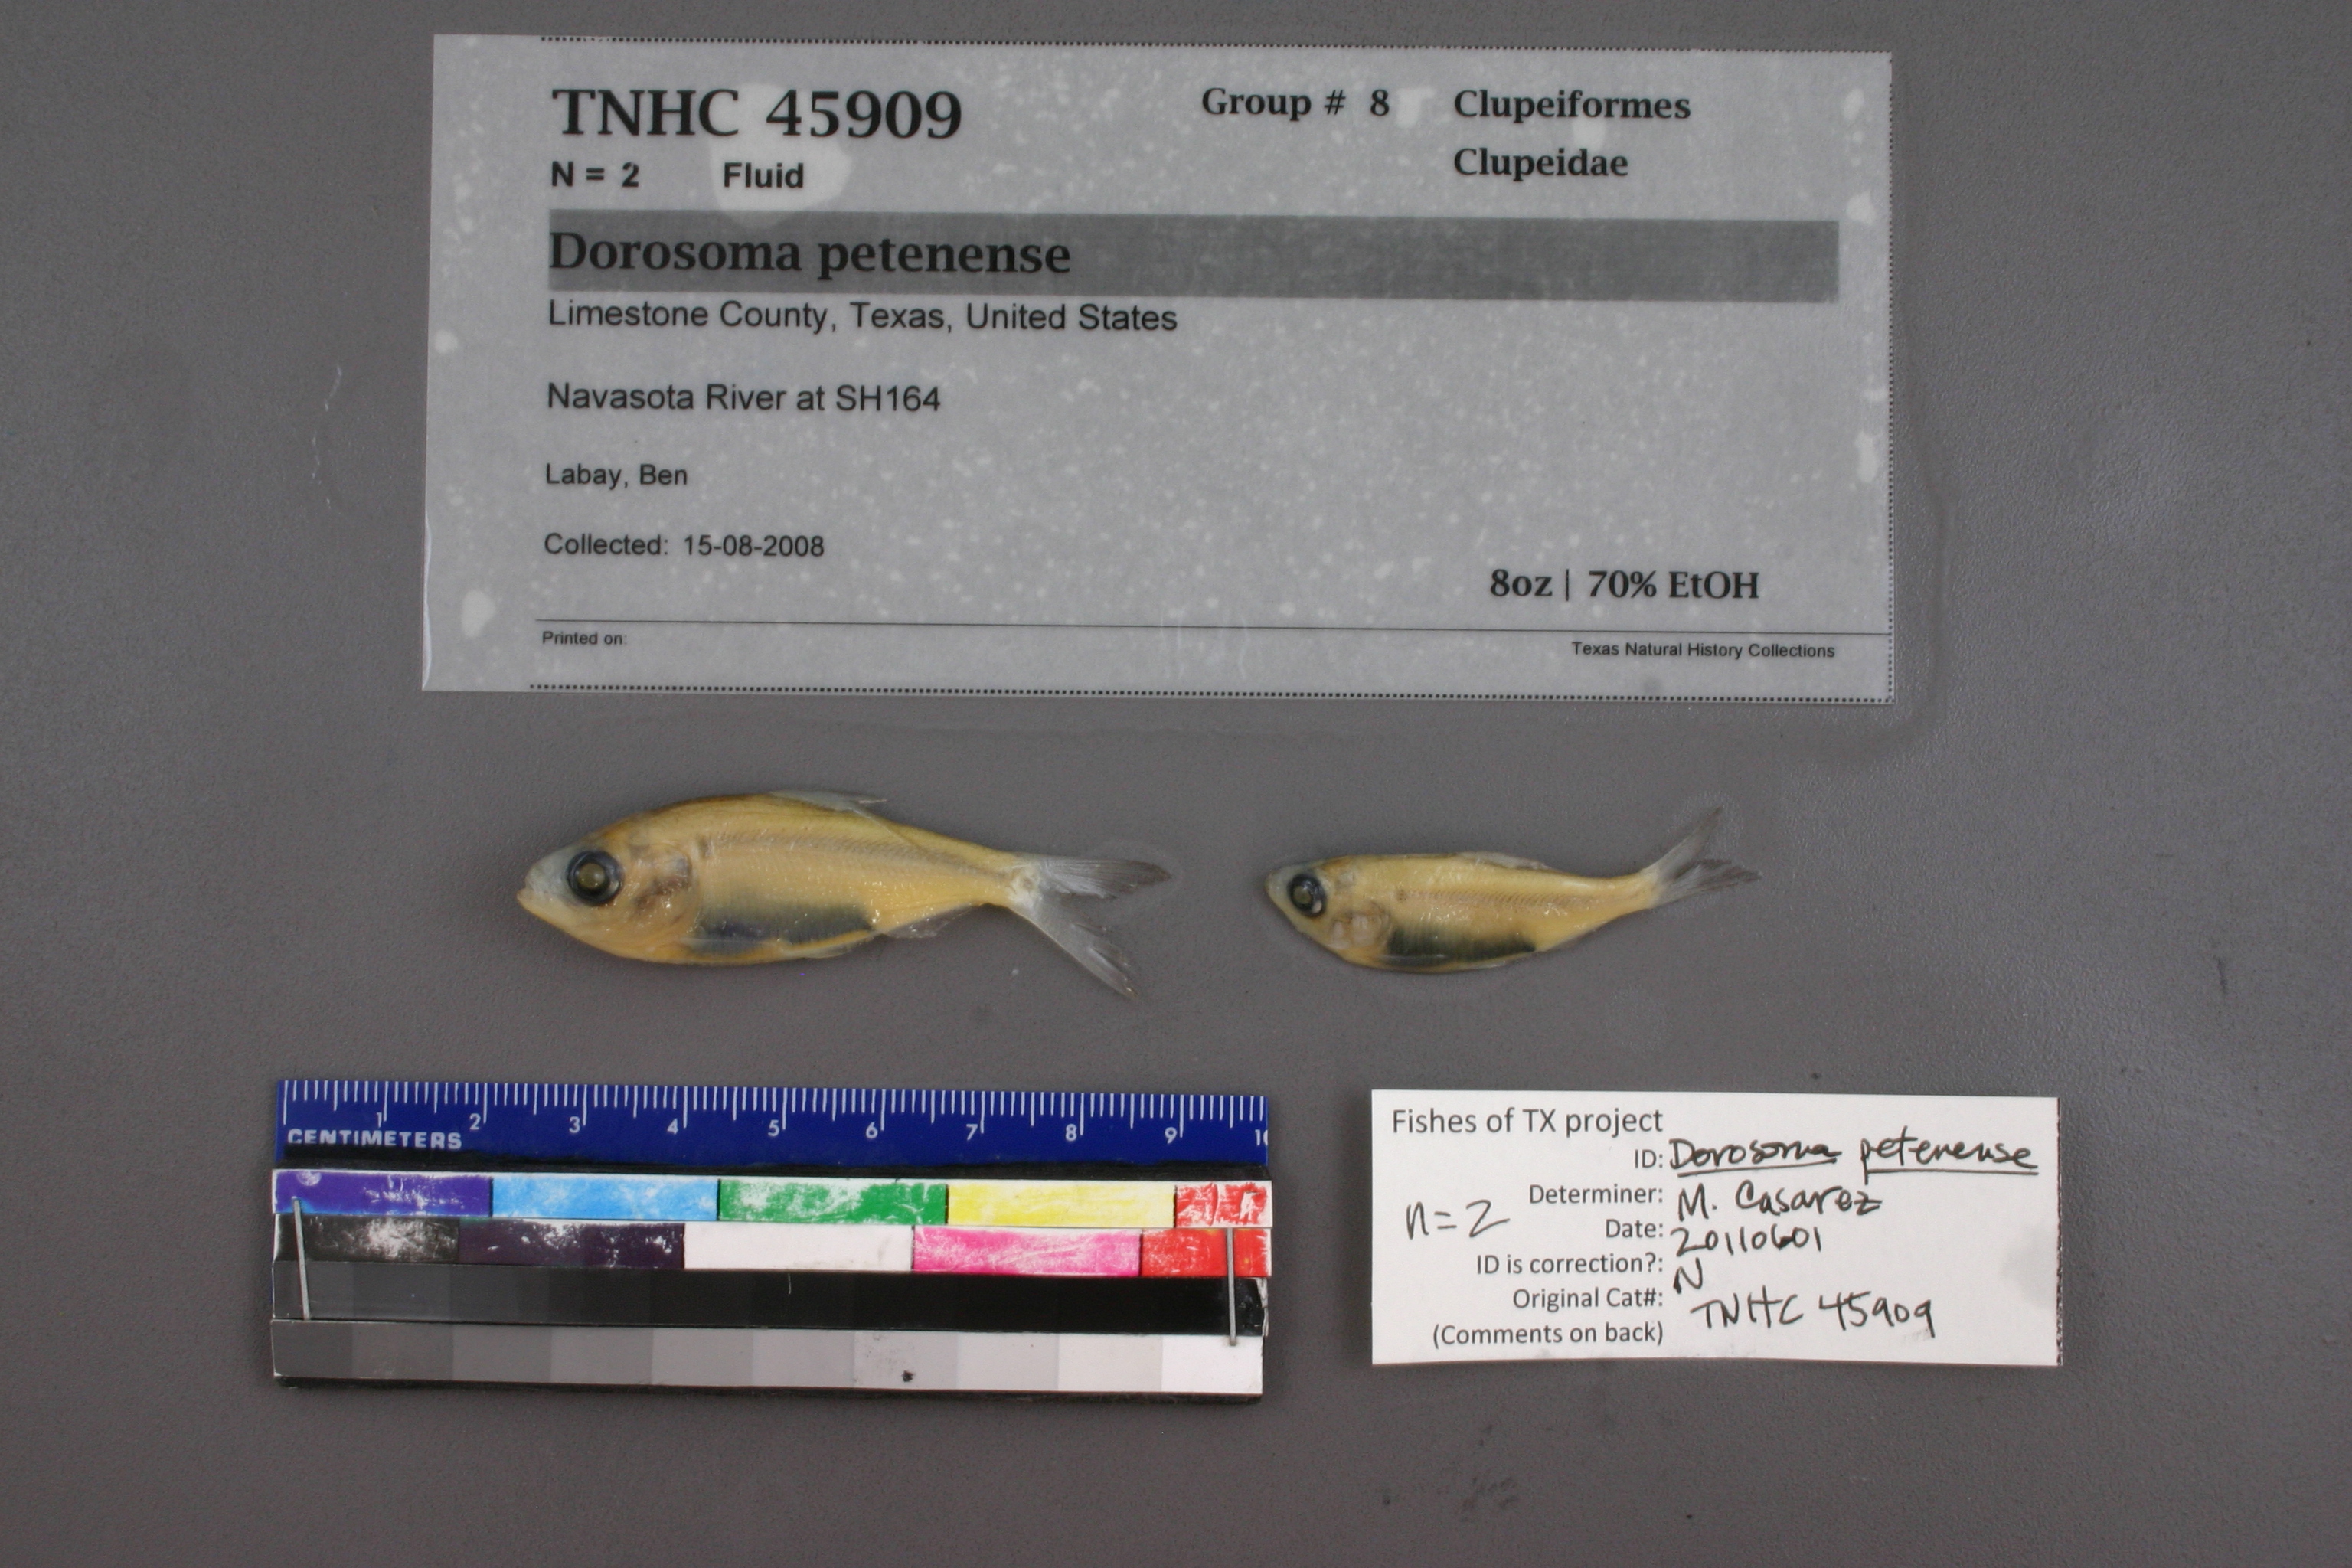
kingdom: Animalia
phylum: Chordata
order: Clupeiformes
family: Clupeidae
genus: Dorosoma
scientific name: Dorosoma petenense
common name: Threadfin shad
